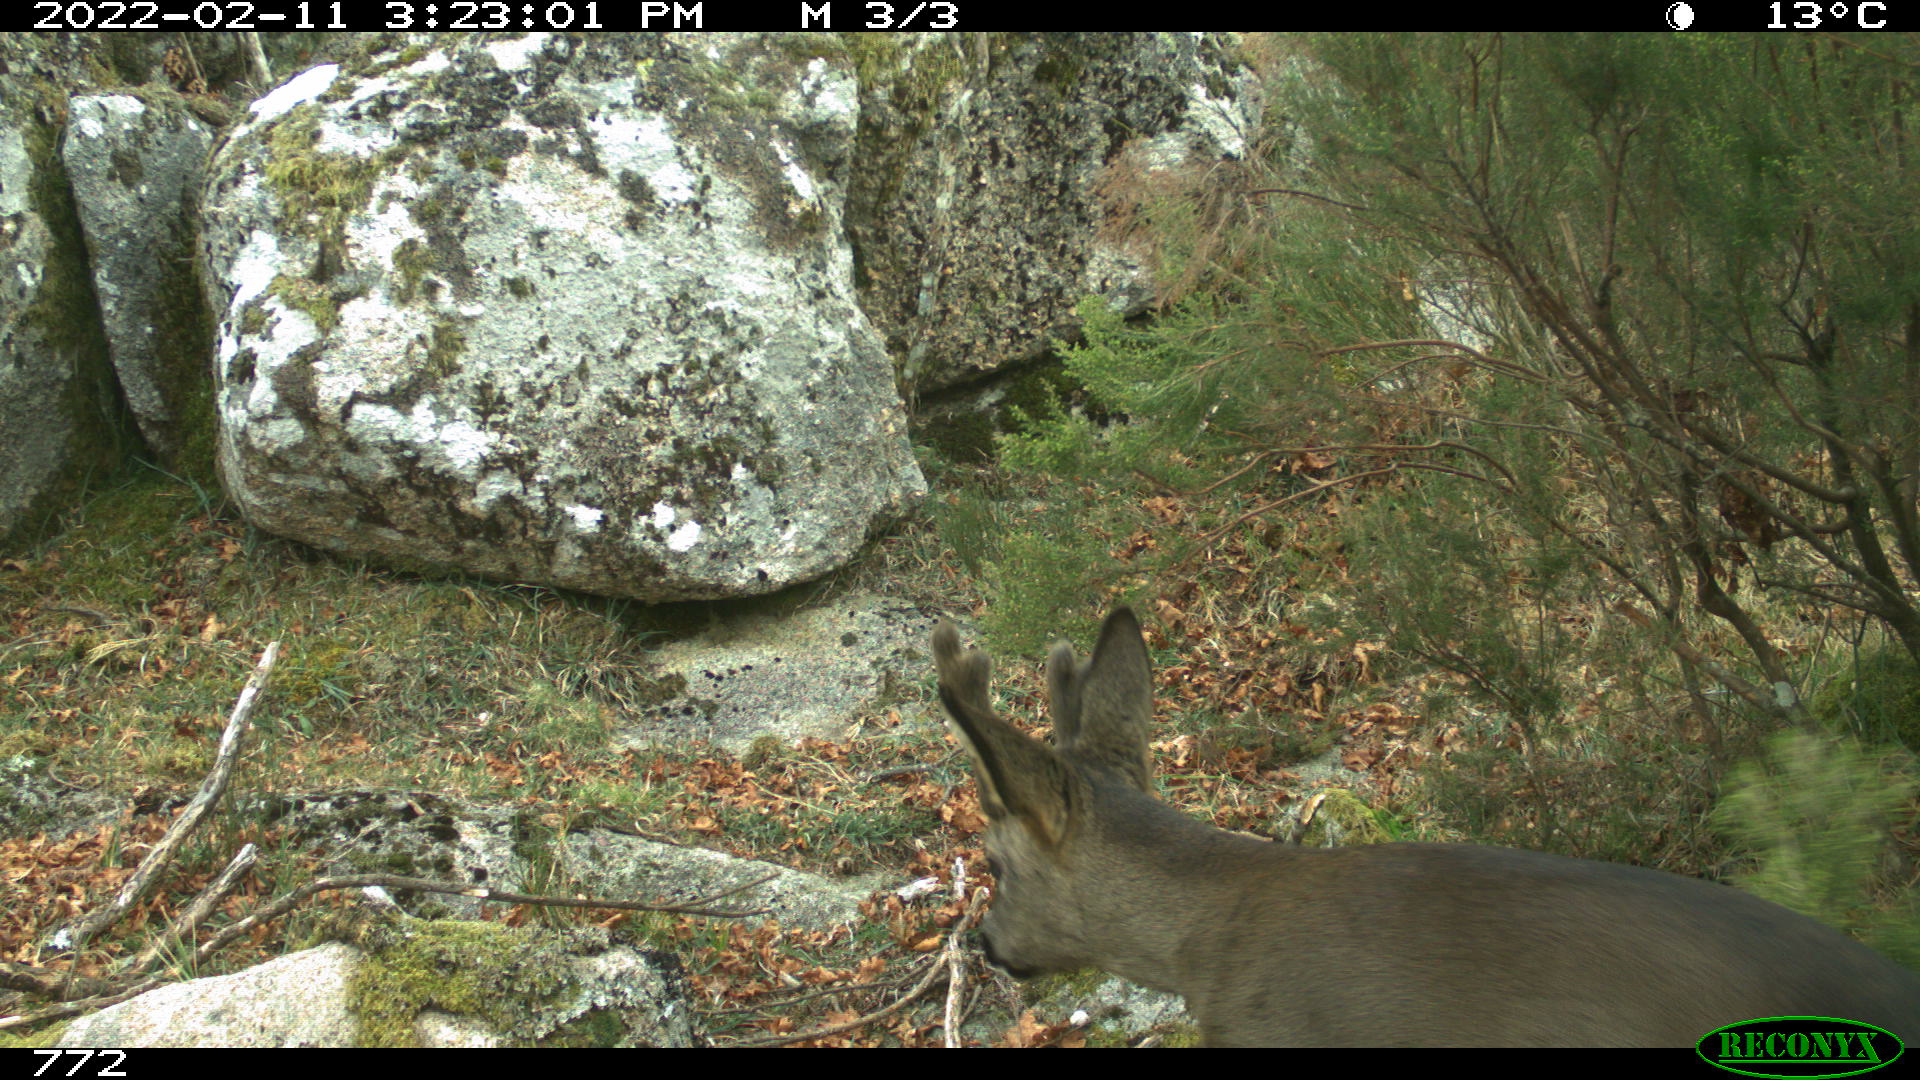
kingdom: Animalia
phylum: Chordata
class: Mammalia
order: Artiodactyla
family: Cervidae
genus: Capreolus
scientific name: Capreolus capreolus
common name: Western roe deer
